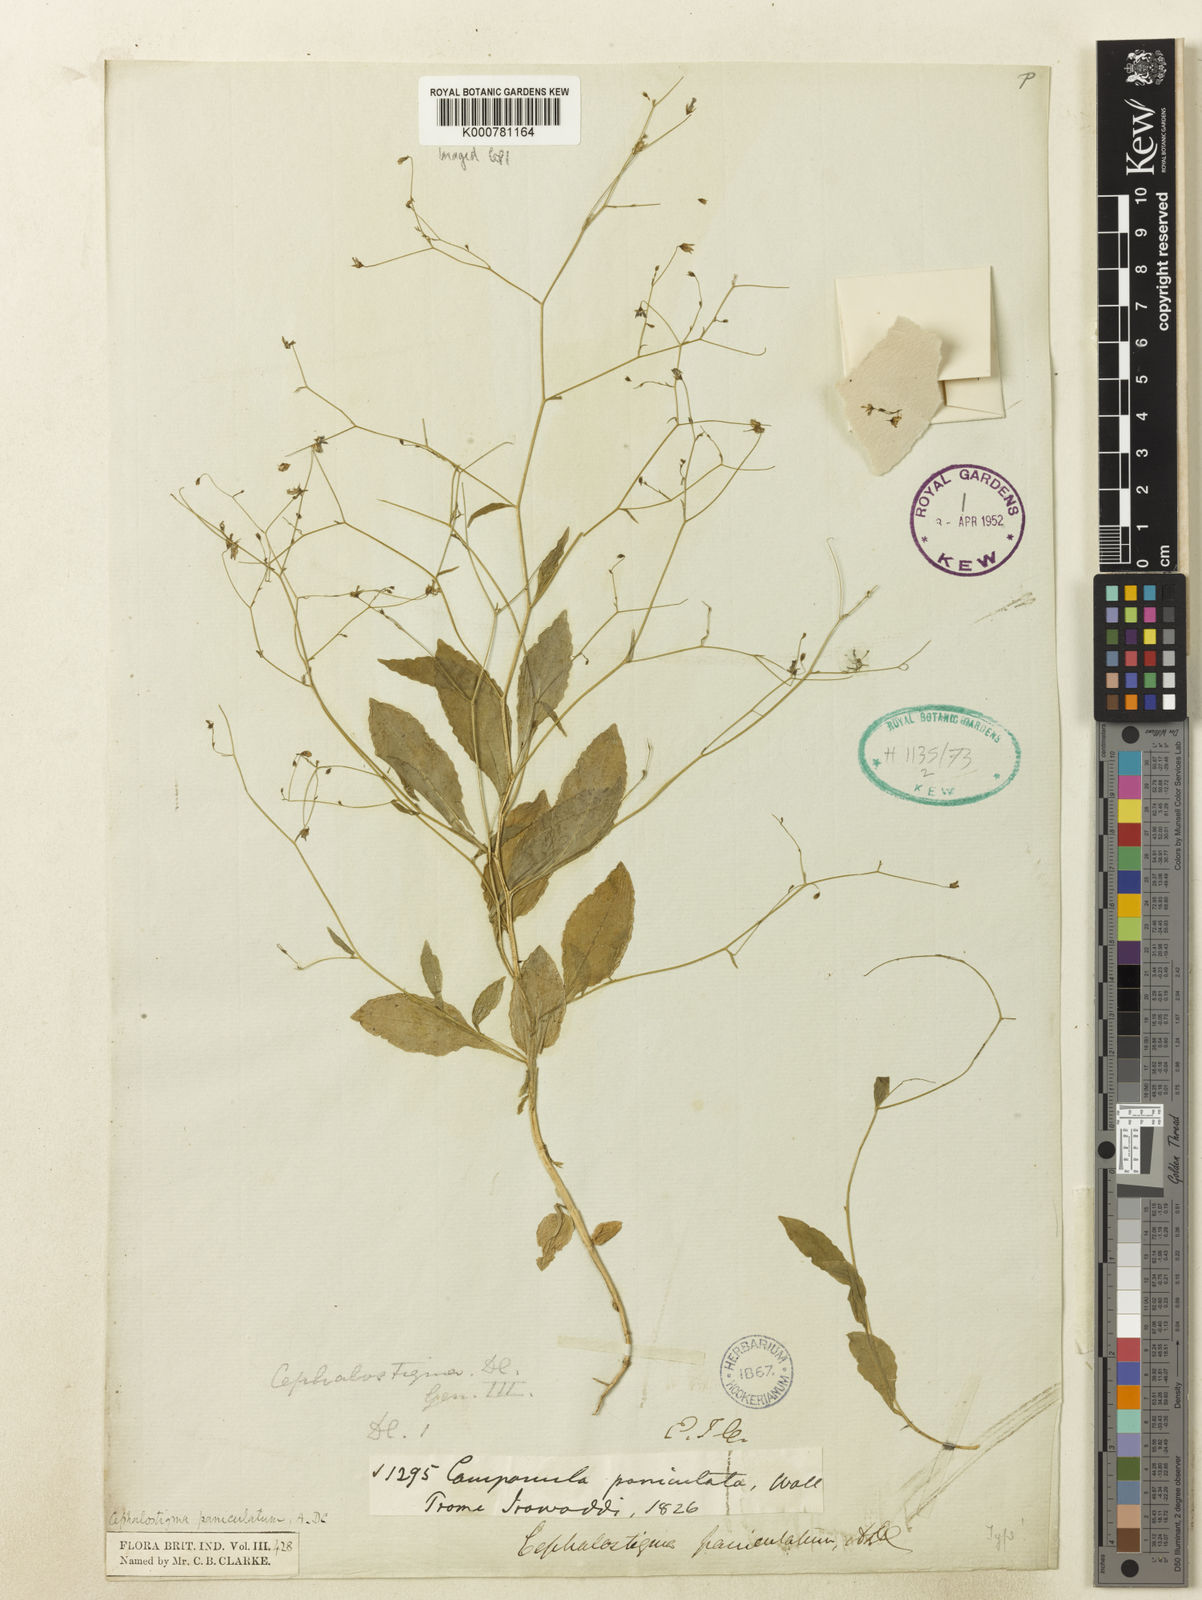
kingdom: Plantae
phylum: Tracheophyta
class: Magnoliopsida
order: Asterales
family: Campanulaceae
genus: Wahlenbergia
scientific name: Wahlenbergia candollei
